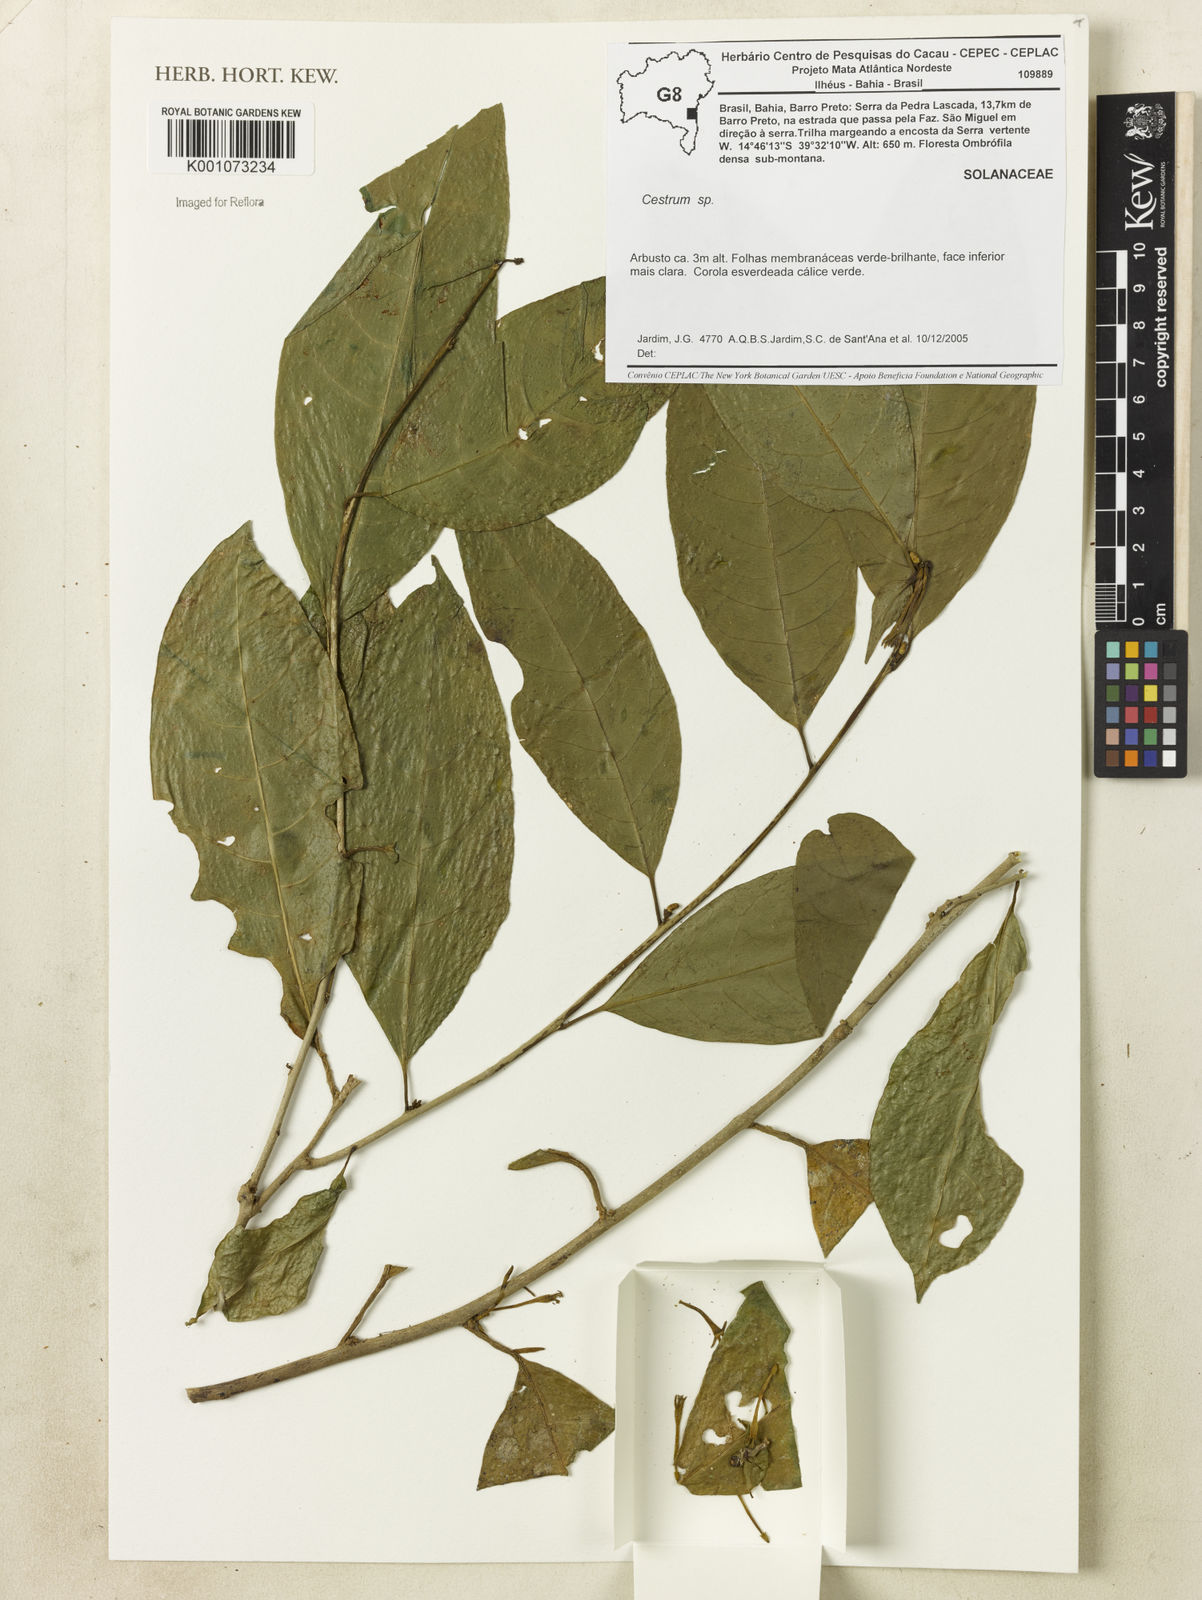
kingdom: Plantae
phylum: Tracheophyta
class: Magnoliopsida
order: Solanales
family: Solanaceae
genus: Cestrum
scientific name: Cestrum
